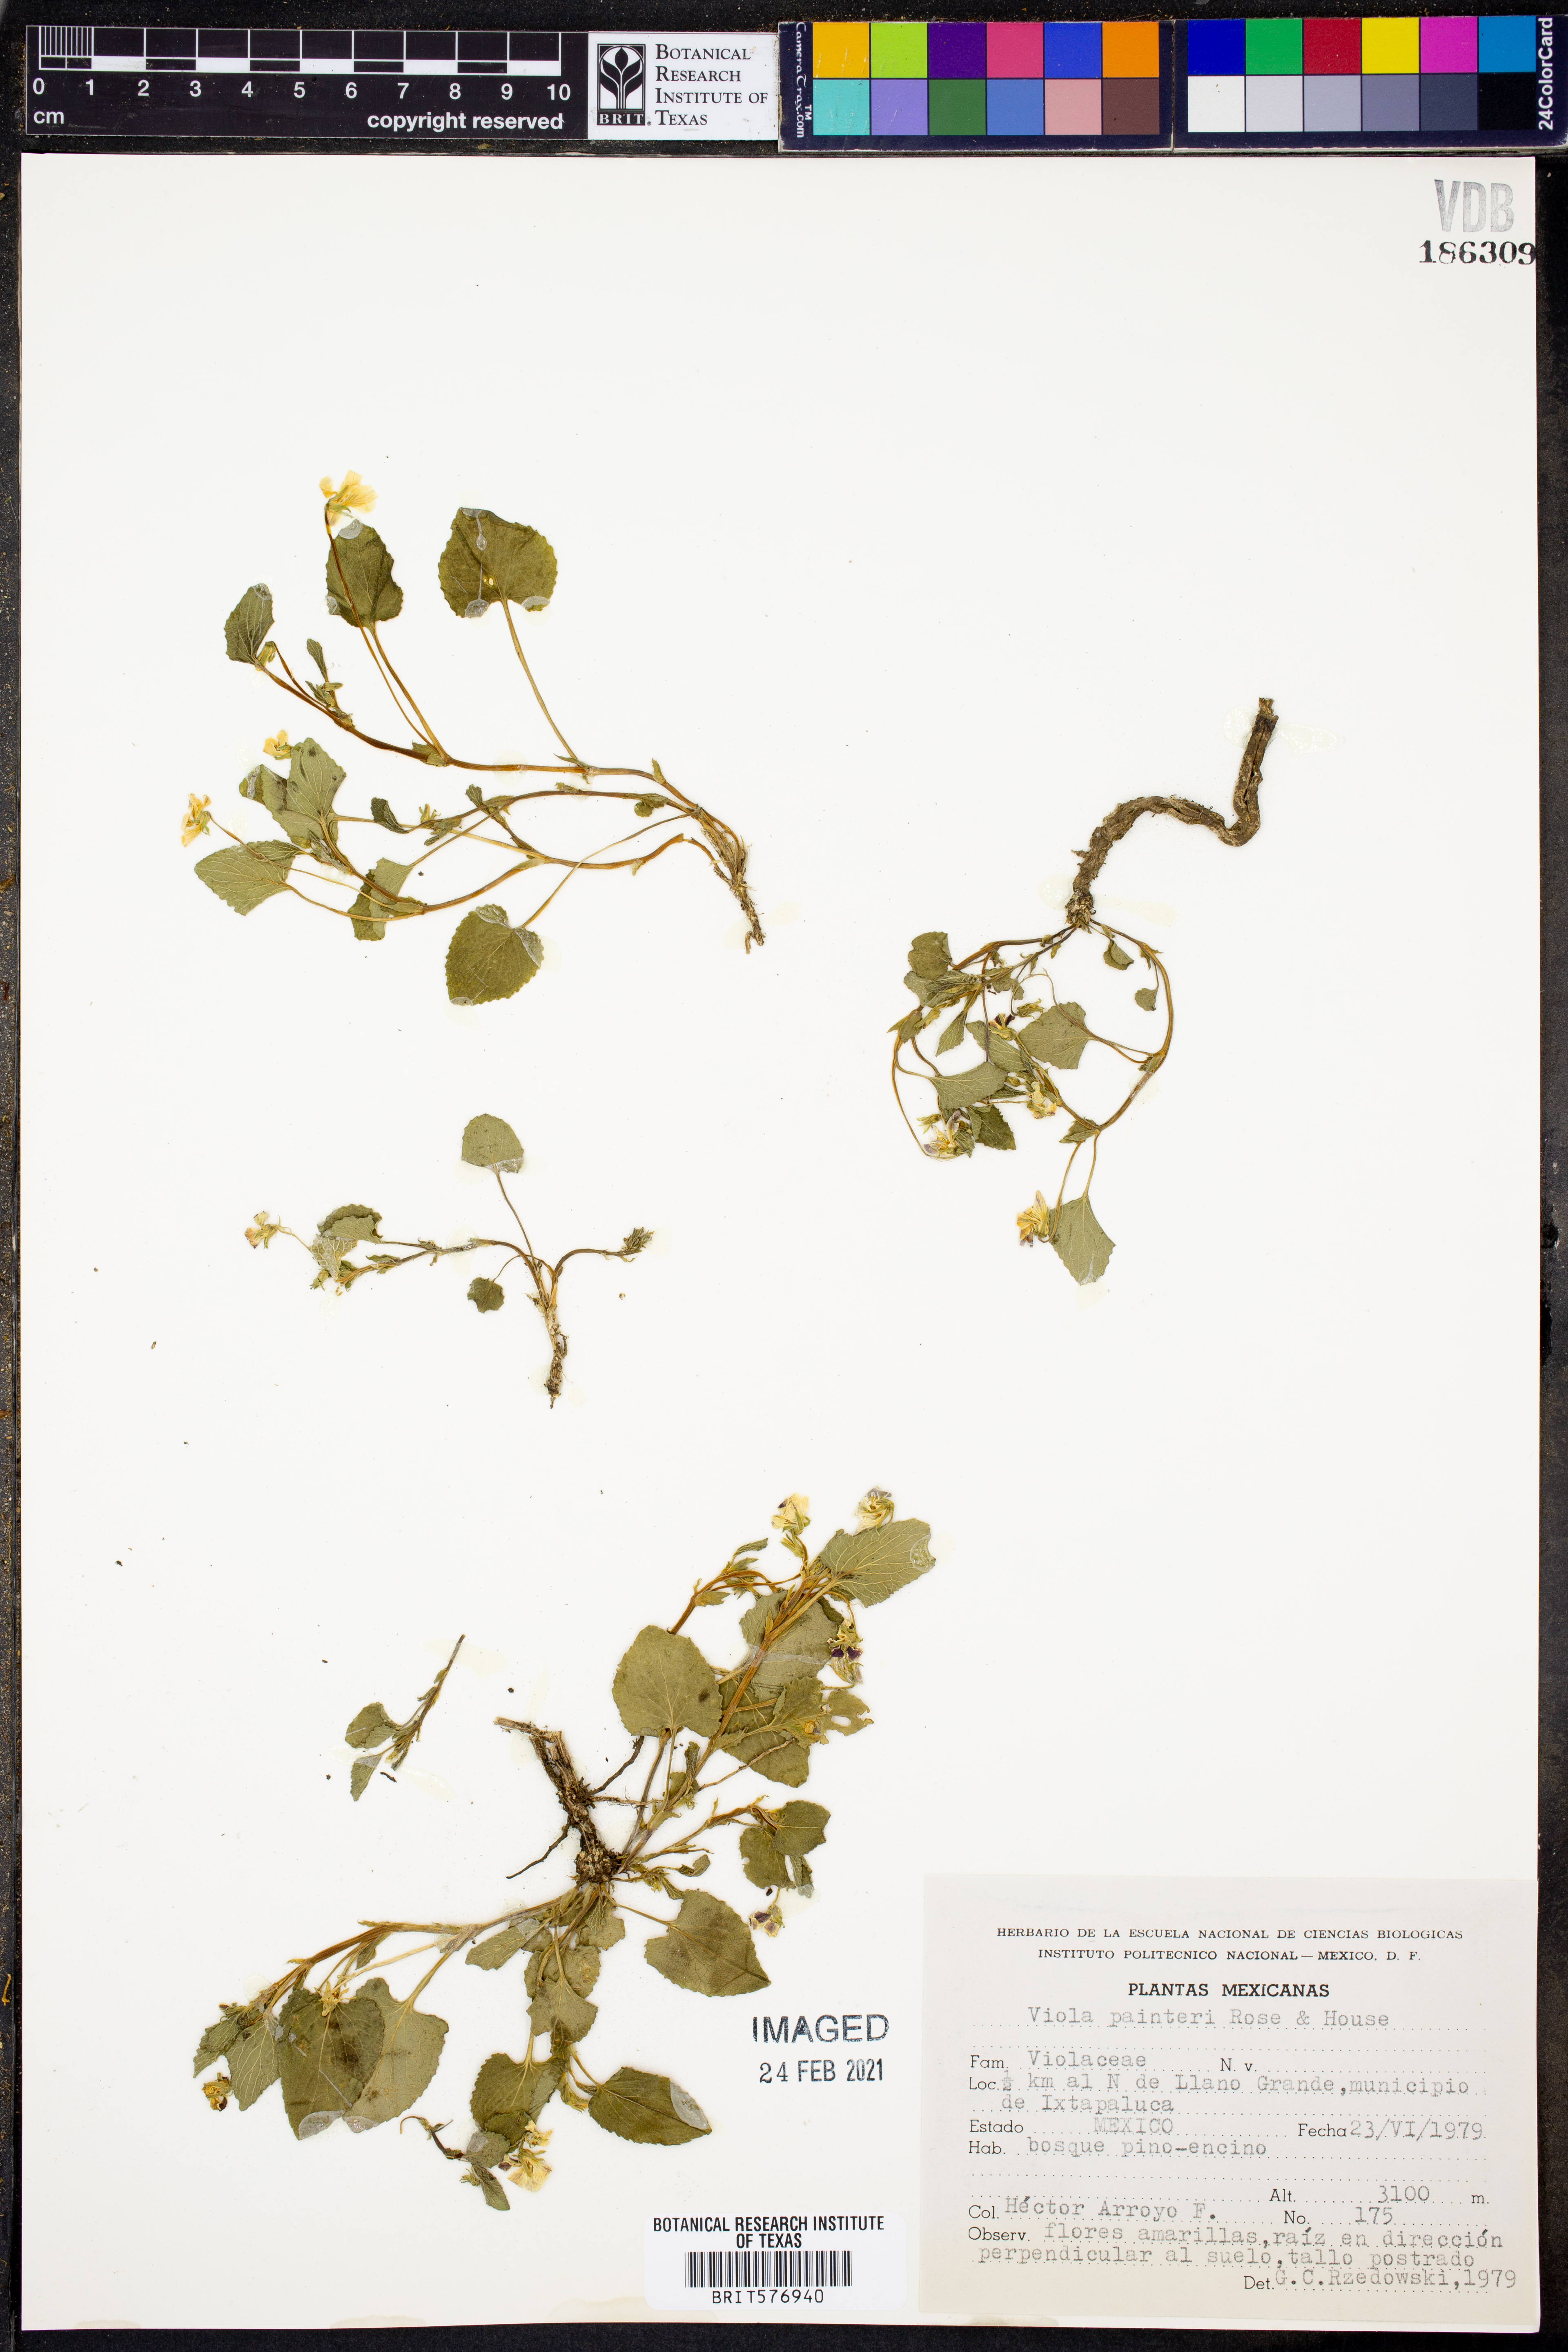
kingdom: Plantae
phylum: Tracheophyta
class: Magnoliopsida
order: Malpighiales
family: Violaceae
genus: Viola
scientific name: Viola painteri
